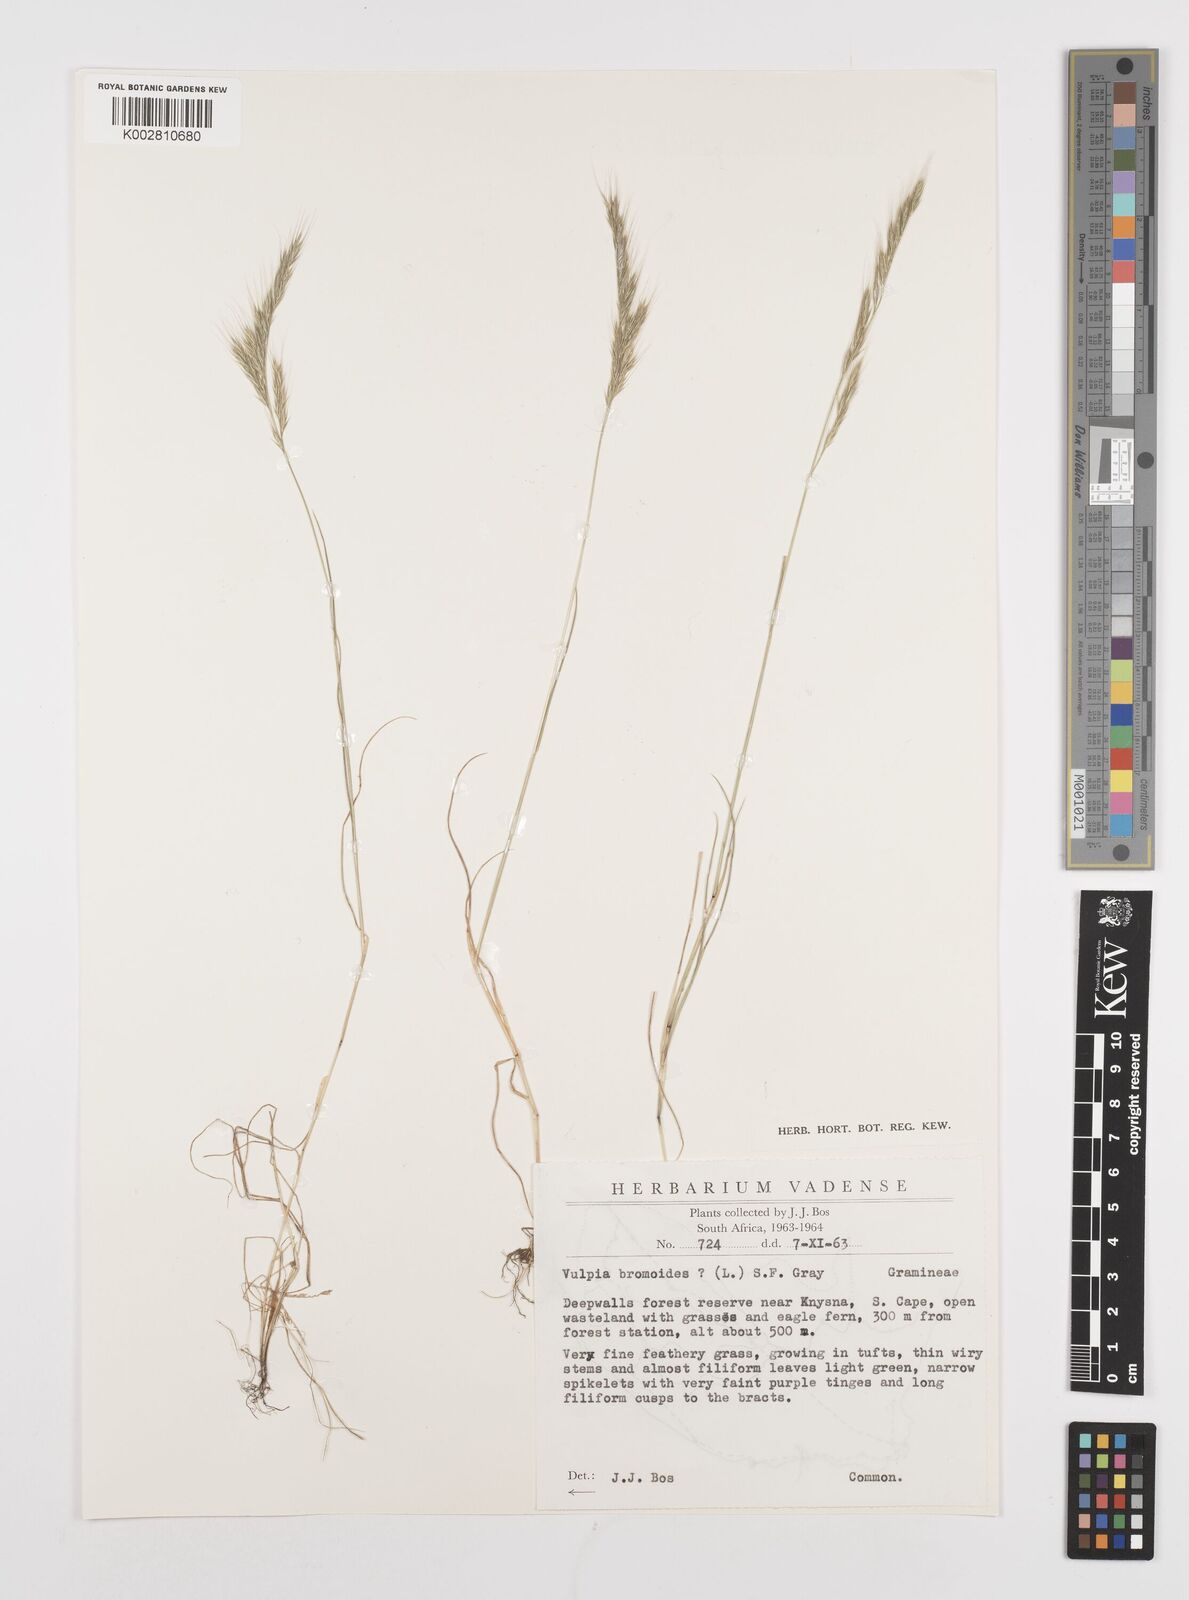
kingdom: Plantae
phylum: Tracheophyta
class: Liliopsida
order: Poales
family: Poaceae
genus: Festuca
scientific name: Festuca bromoides
